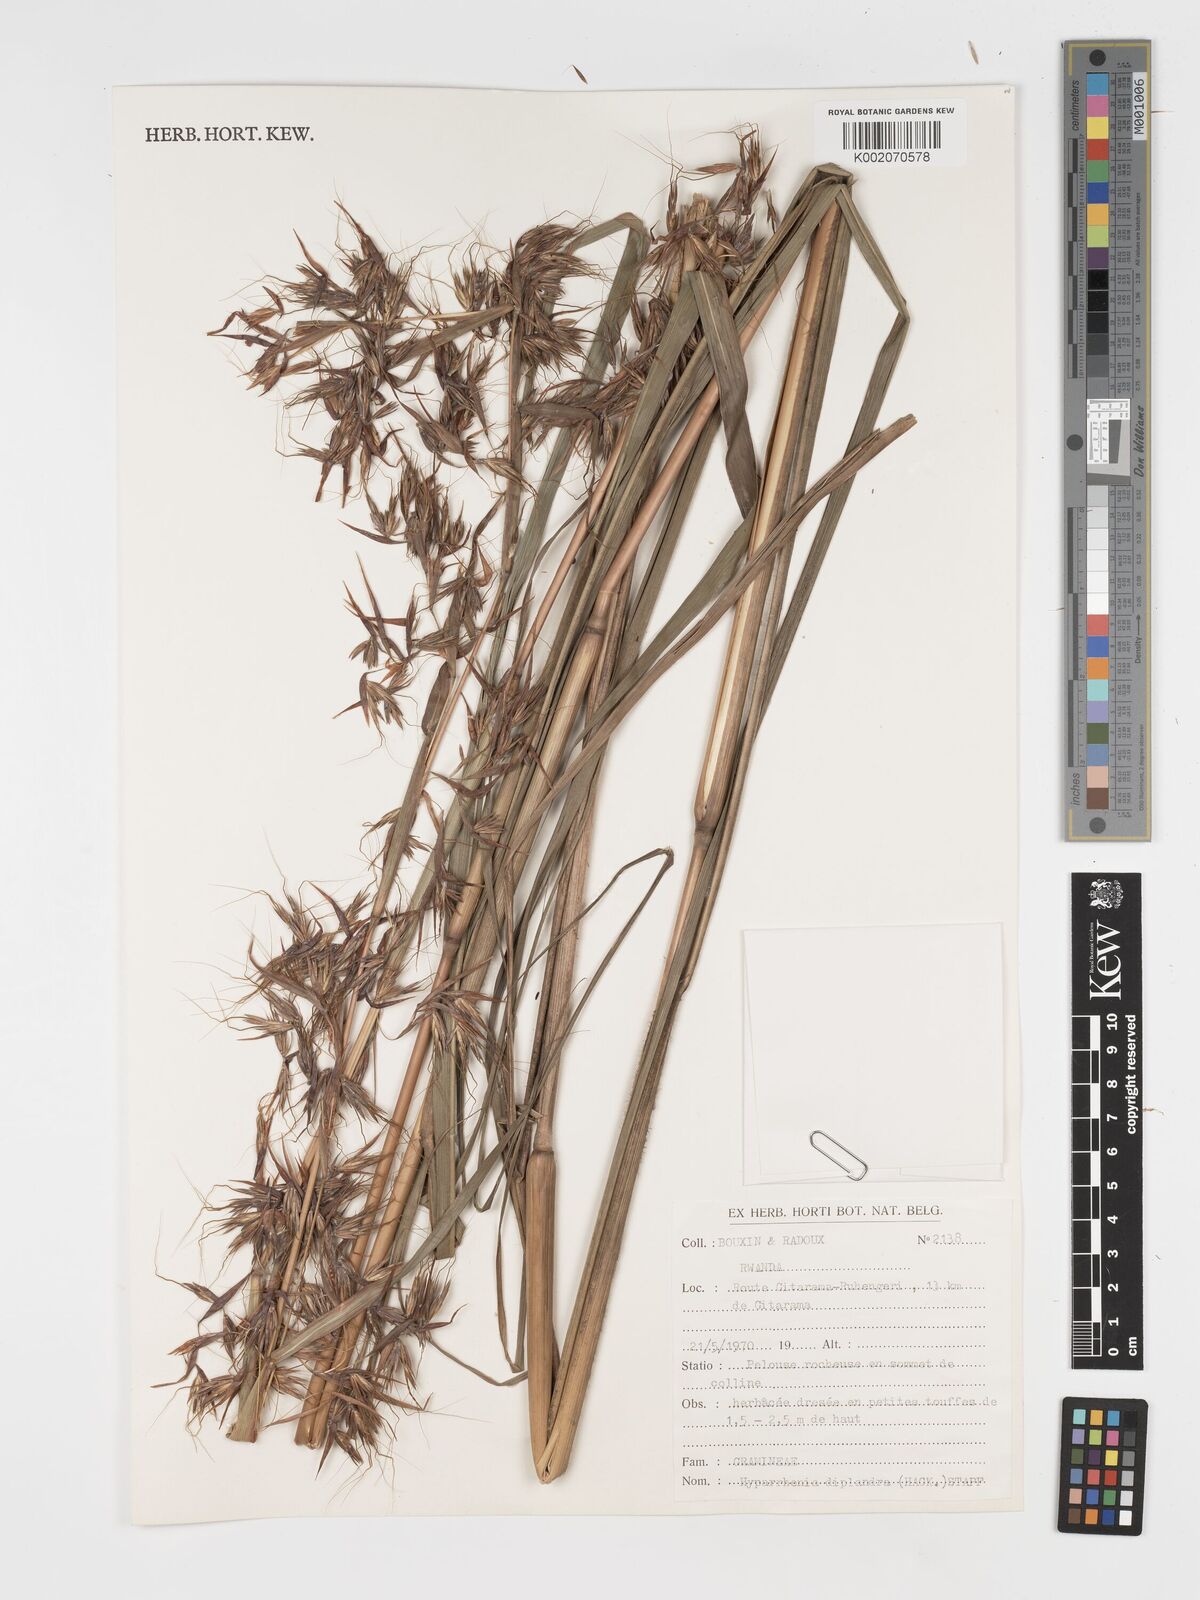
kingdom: Plantae
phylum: Tracheophyta
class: Liliopsida
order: Poales
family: Poaceae
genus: Hyparrhenia
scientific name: Hyparrhenia diplandra
